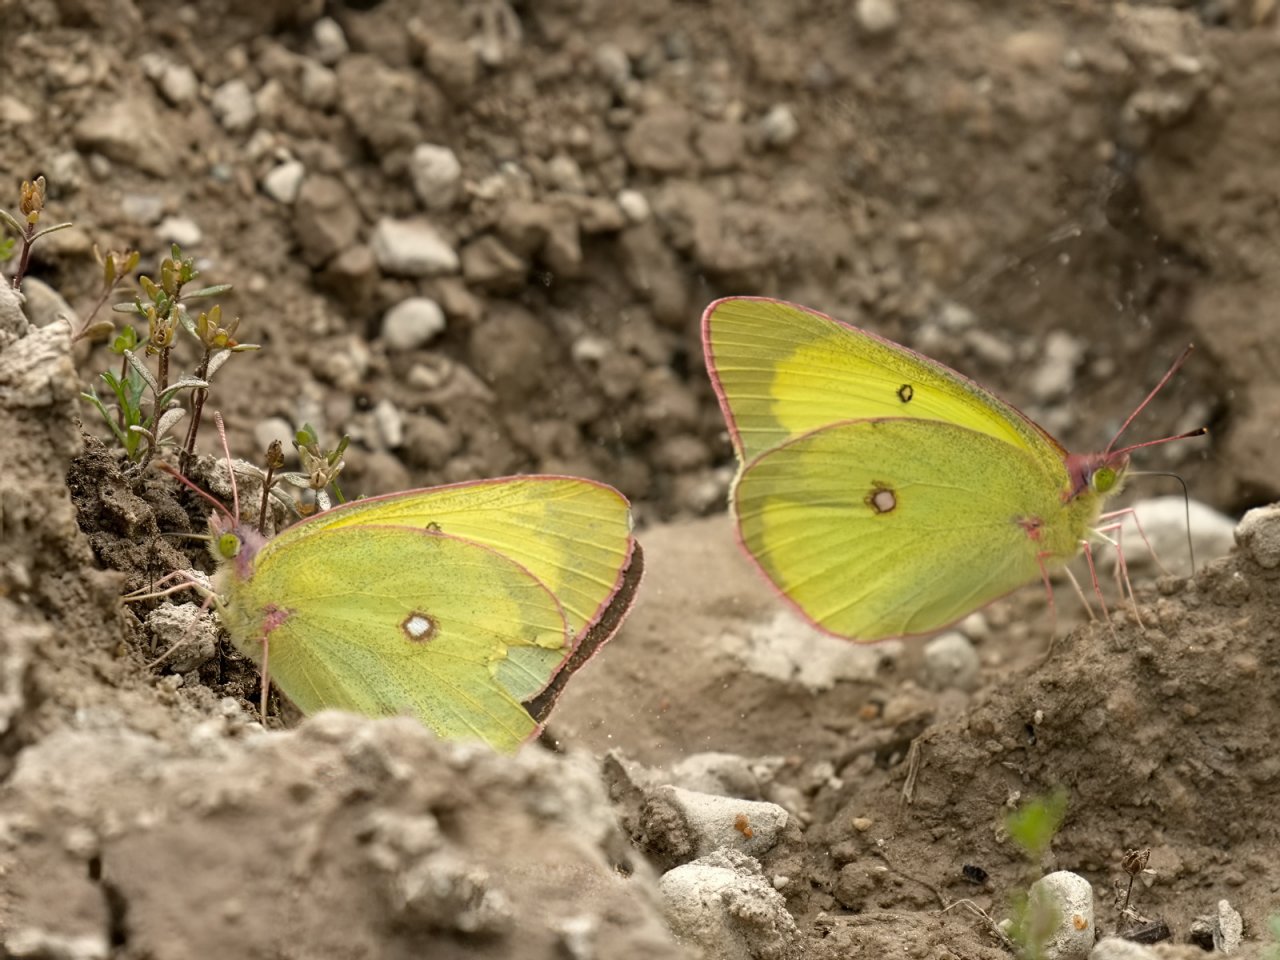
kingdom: Animalia
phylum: Arthropoda
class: Insecta
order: Lepidoptera
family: Pieridae
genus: Colias
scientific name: Colias interior
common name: Pink-edged Sulphur
